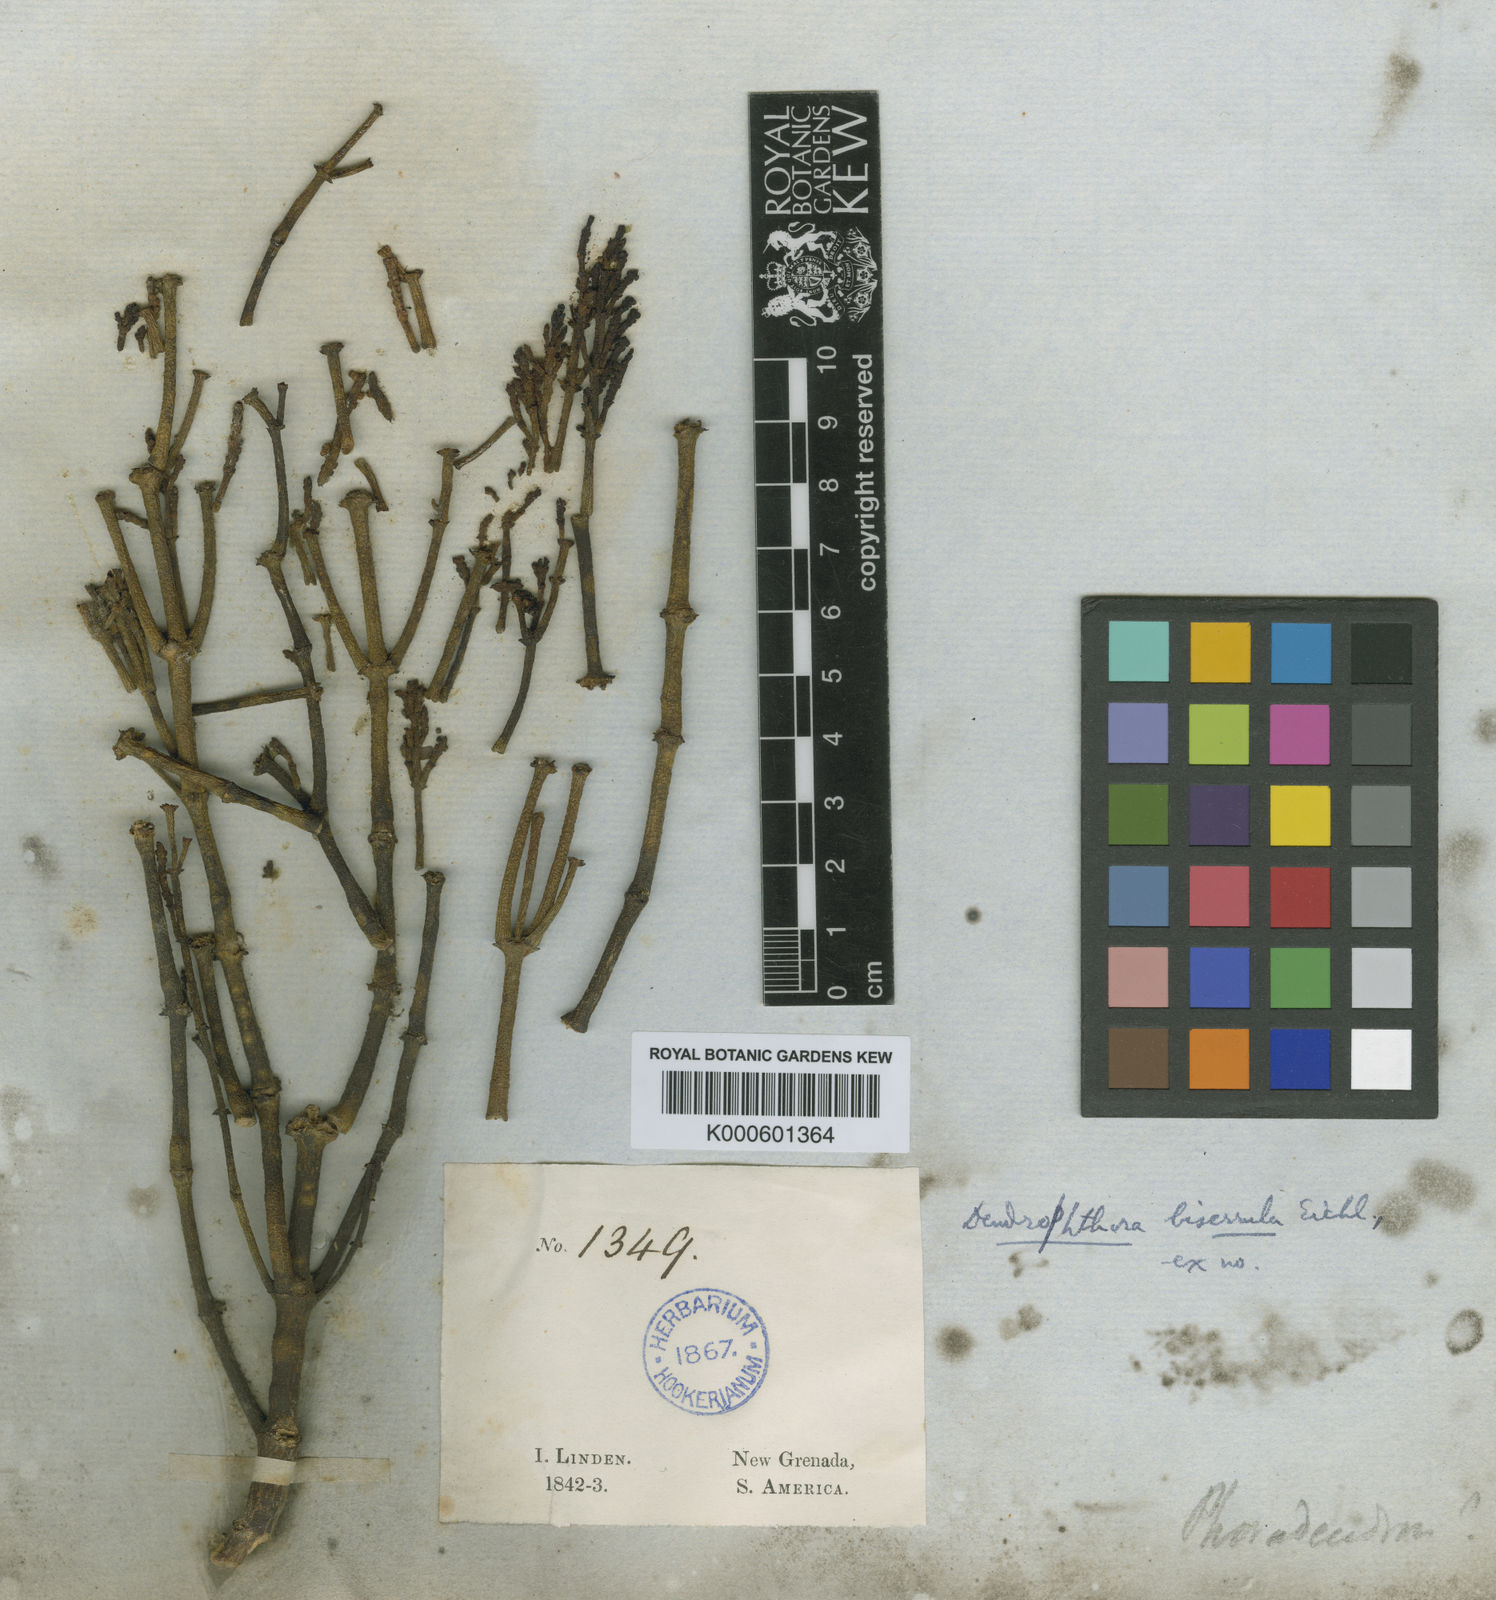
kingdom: Plantae
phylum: Tracheophyta
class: Magnoliopsida
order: Santalales
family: Viscaceae
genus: Dendrophthora
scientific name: Dendrophthora squamigera
